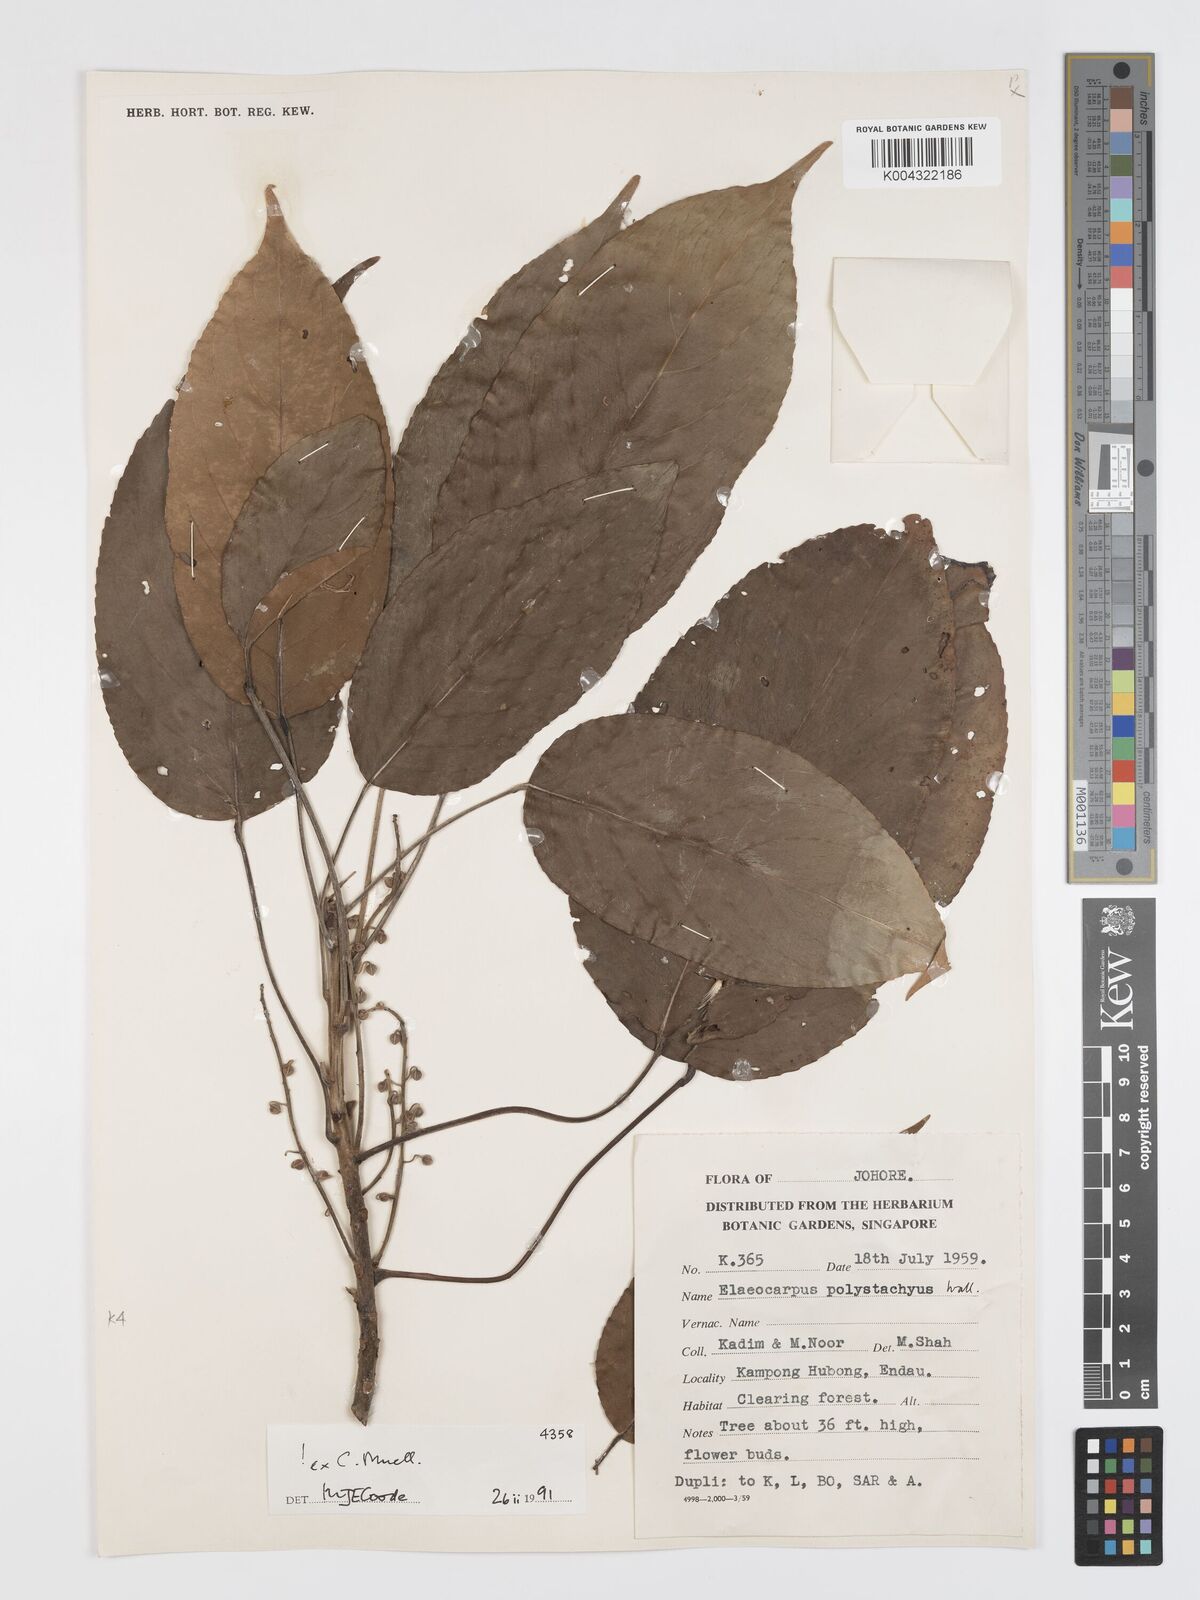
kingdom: Plantae
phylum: Tracheophyta
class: Magnoliopsida
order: Oxalidales
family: Elaeocarpaceae
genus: Elaeocarpus
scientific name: Elaeocarpus polystachyus
